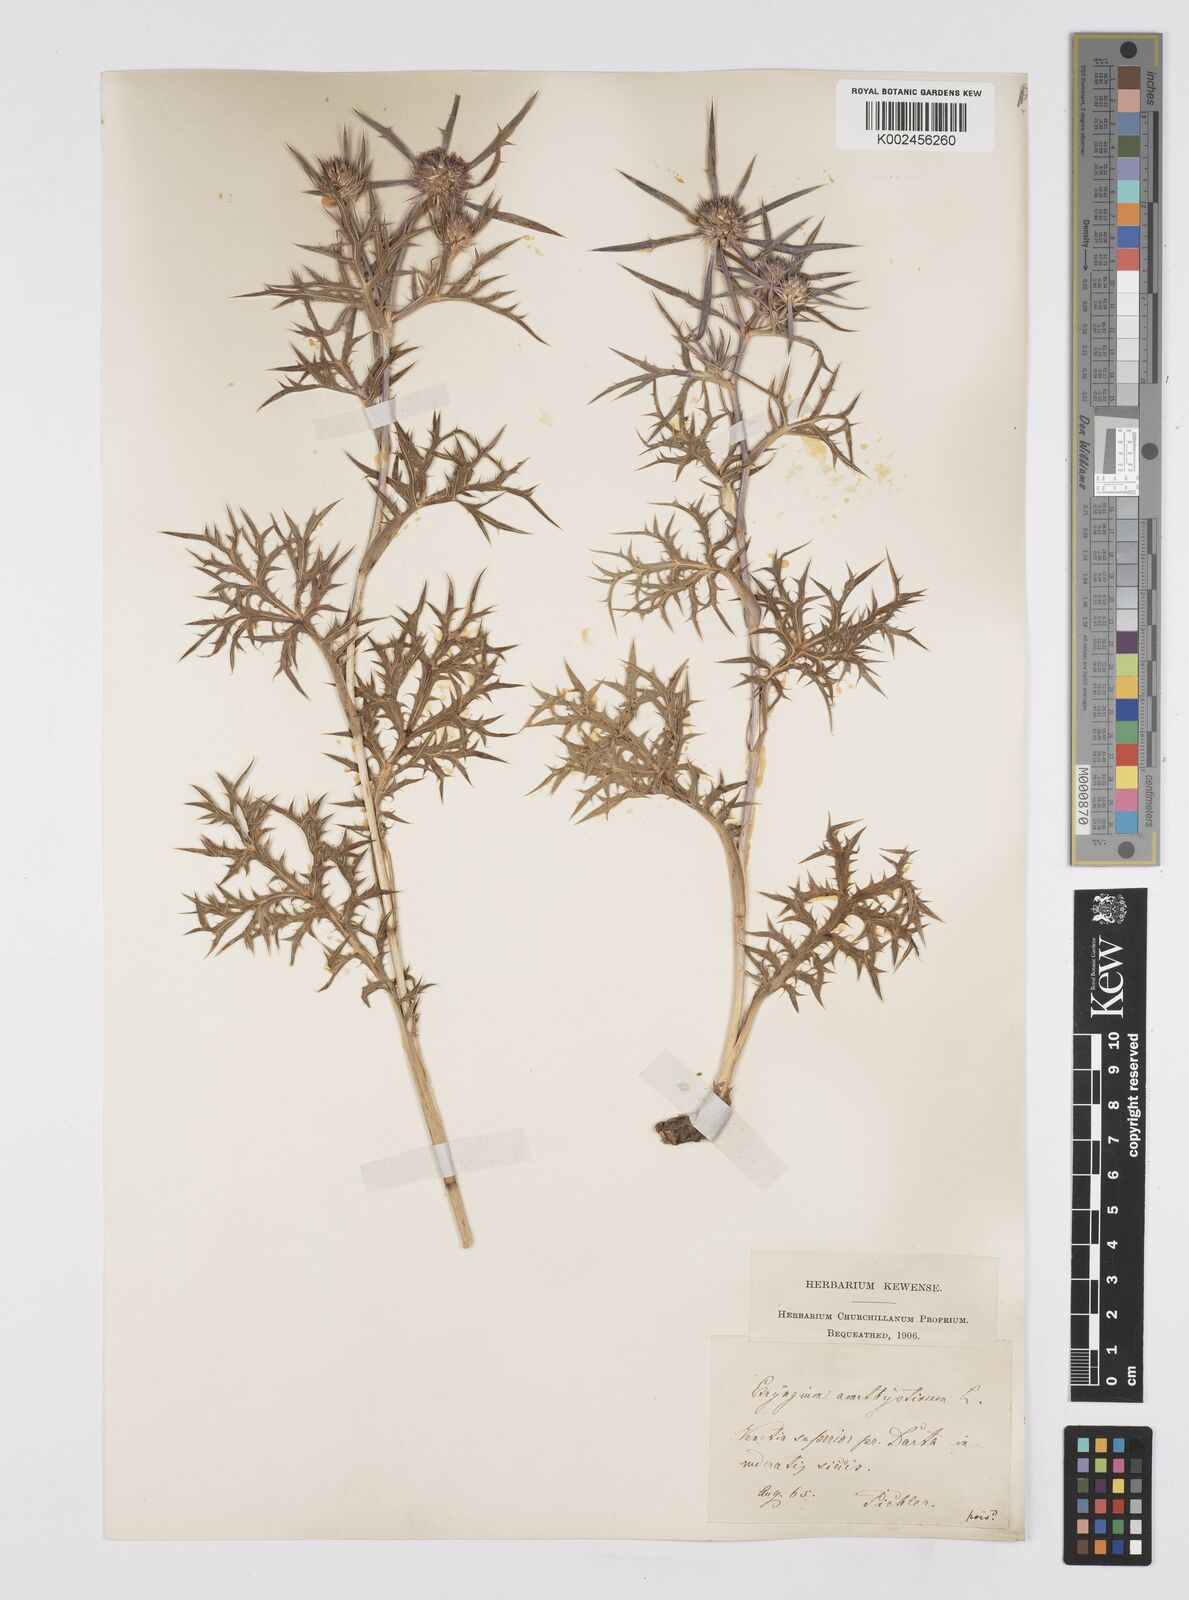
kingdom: Plantae
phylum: Tracheophyta
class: Magnoliopsida
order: Apiales
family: Apiaceae
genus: Eryngium
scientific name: Eryngium amethystinum
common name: Amethyst eryngo
